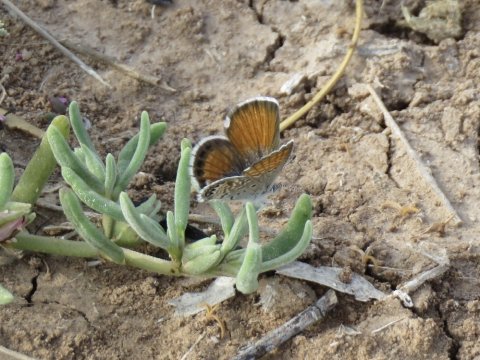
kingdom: Animalia
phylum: Arthropoda
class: Insecta
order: Lepidoptera
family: Lycaenidae
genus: Brephidium
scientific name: Brephidium exilis
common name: Western Pygmy-Blue
